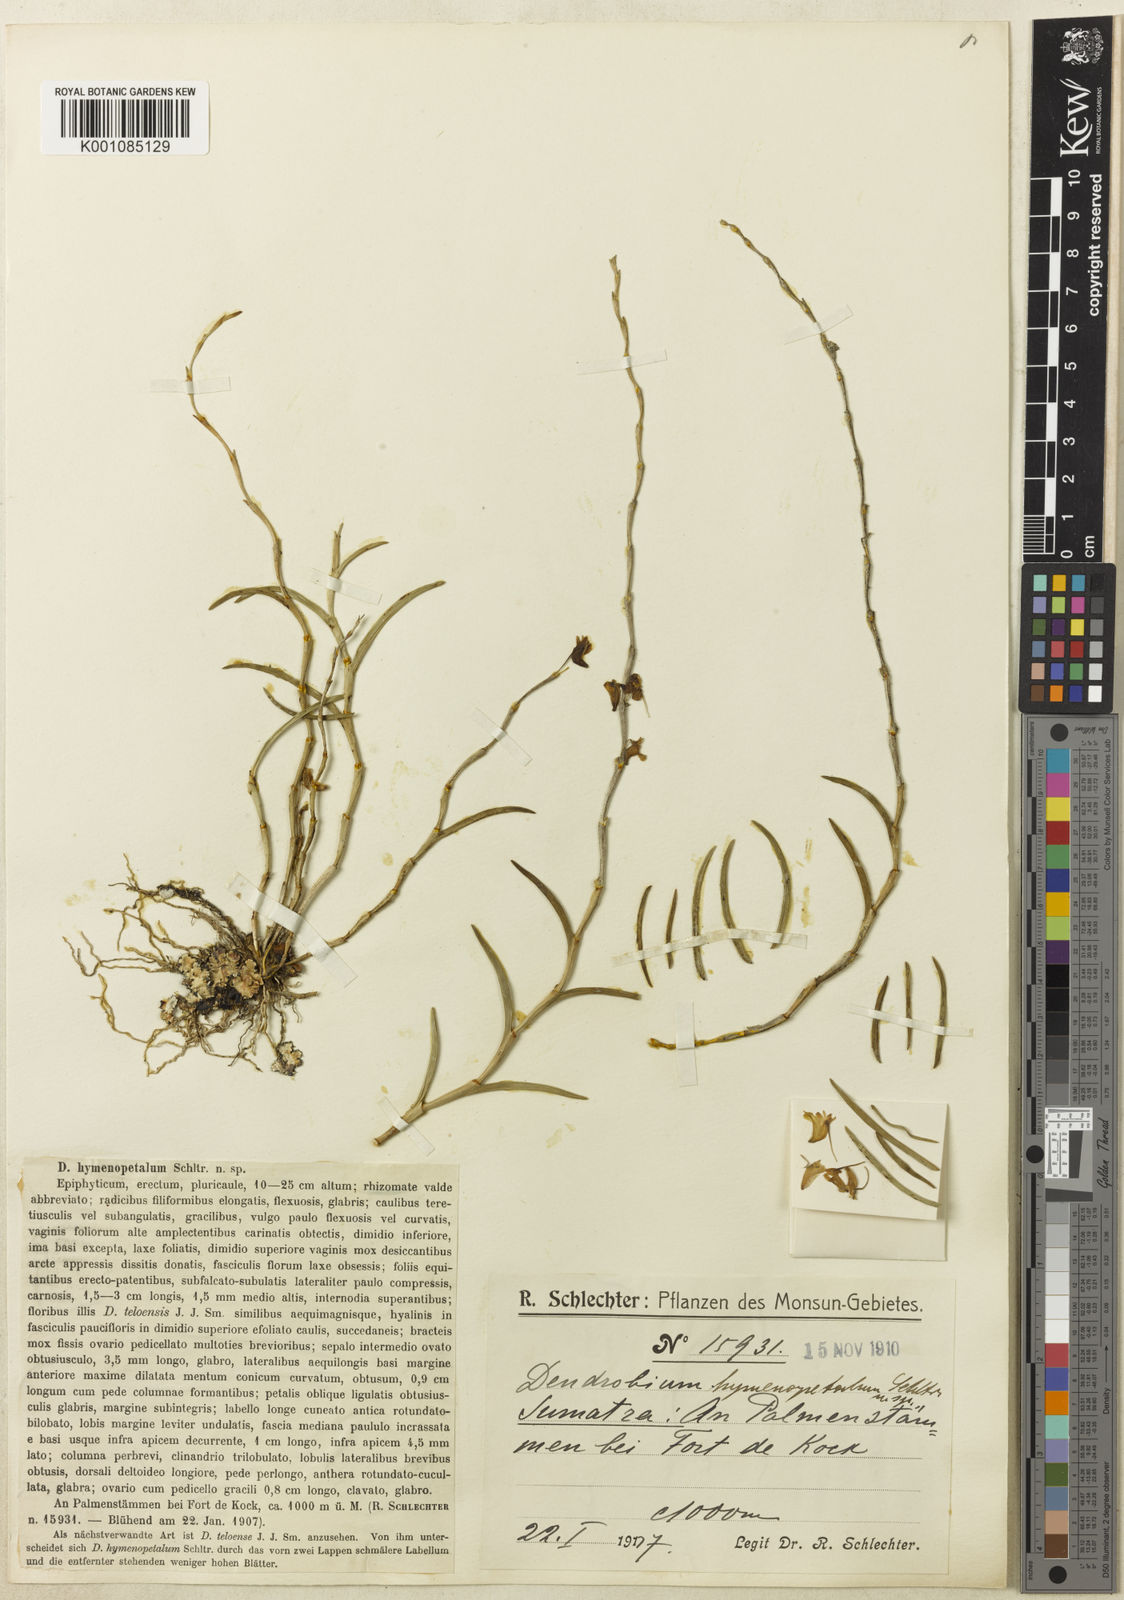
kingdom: Plantae
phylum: Tracheophyta
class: Liliopsida
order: Asparagales
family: Orchidaceae
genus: Dendrobium
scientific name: Dendrobium hymenopetalum
